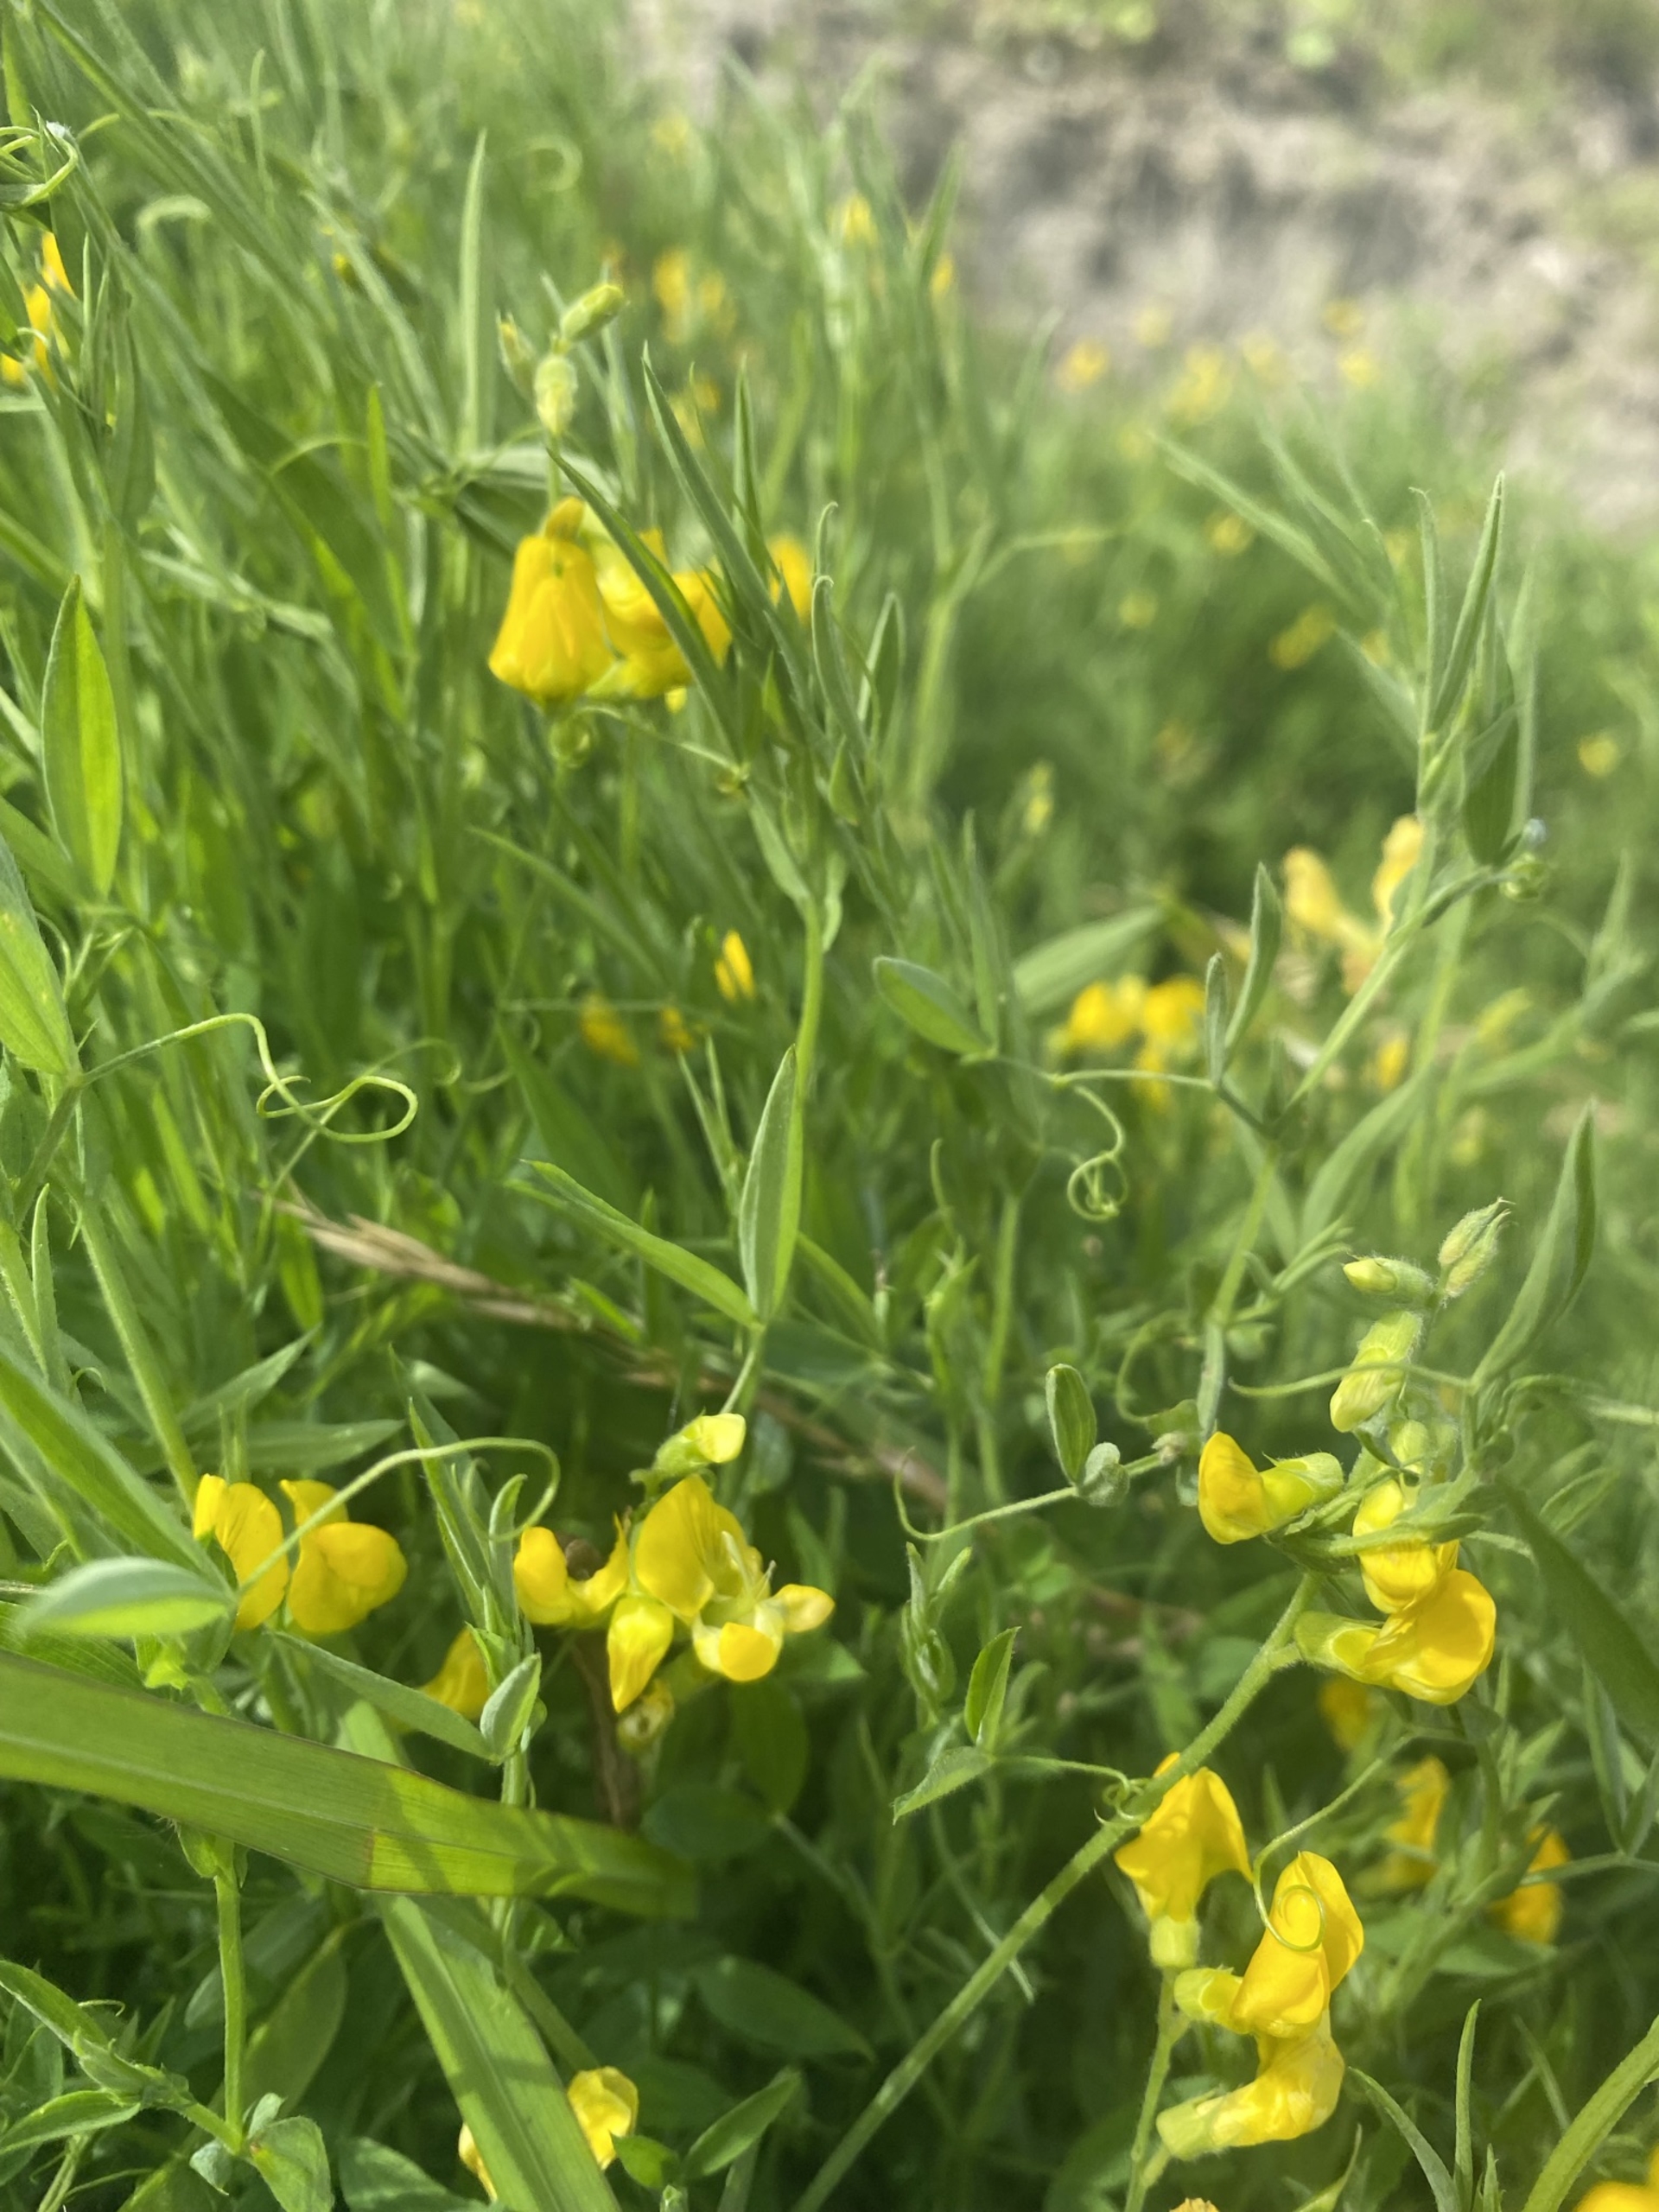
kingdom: Plantae
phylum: Tracheophyta
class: Magnoliopsida
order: Fabales
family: Fabaceae
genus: Lathyrus
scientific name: Lathyrus pratensis
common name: Gul fladbælg
